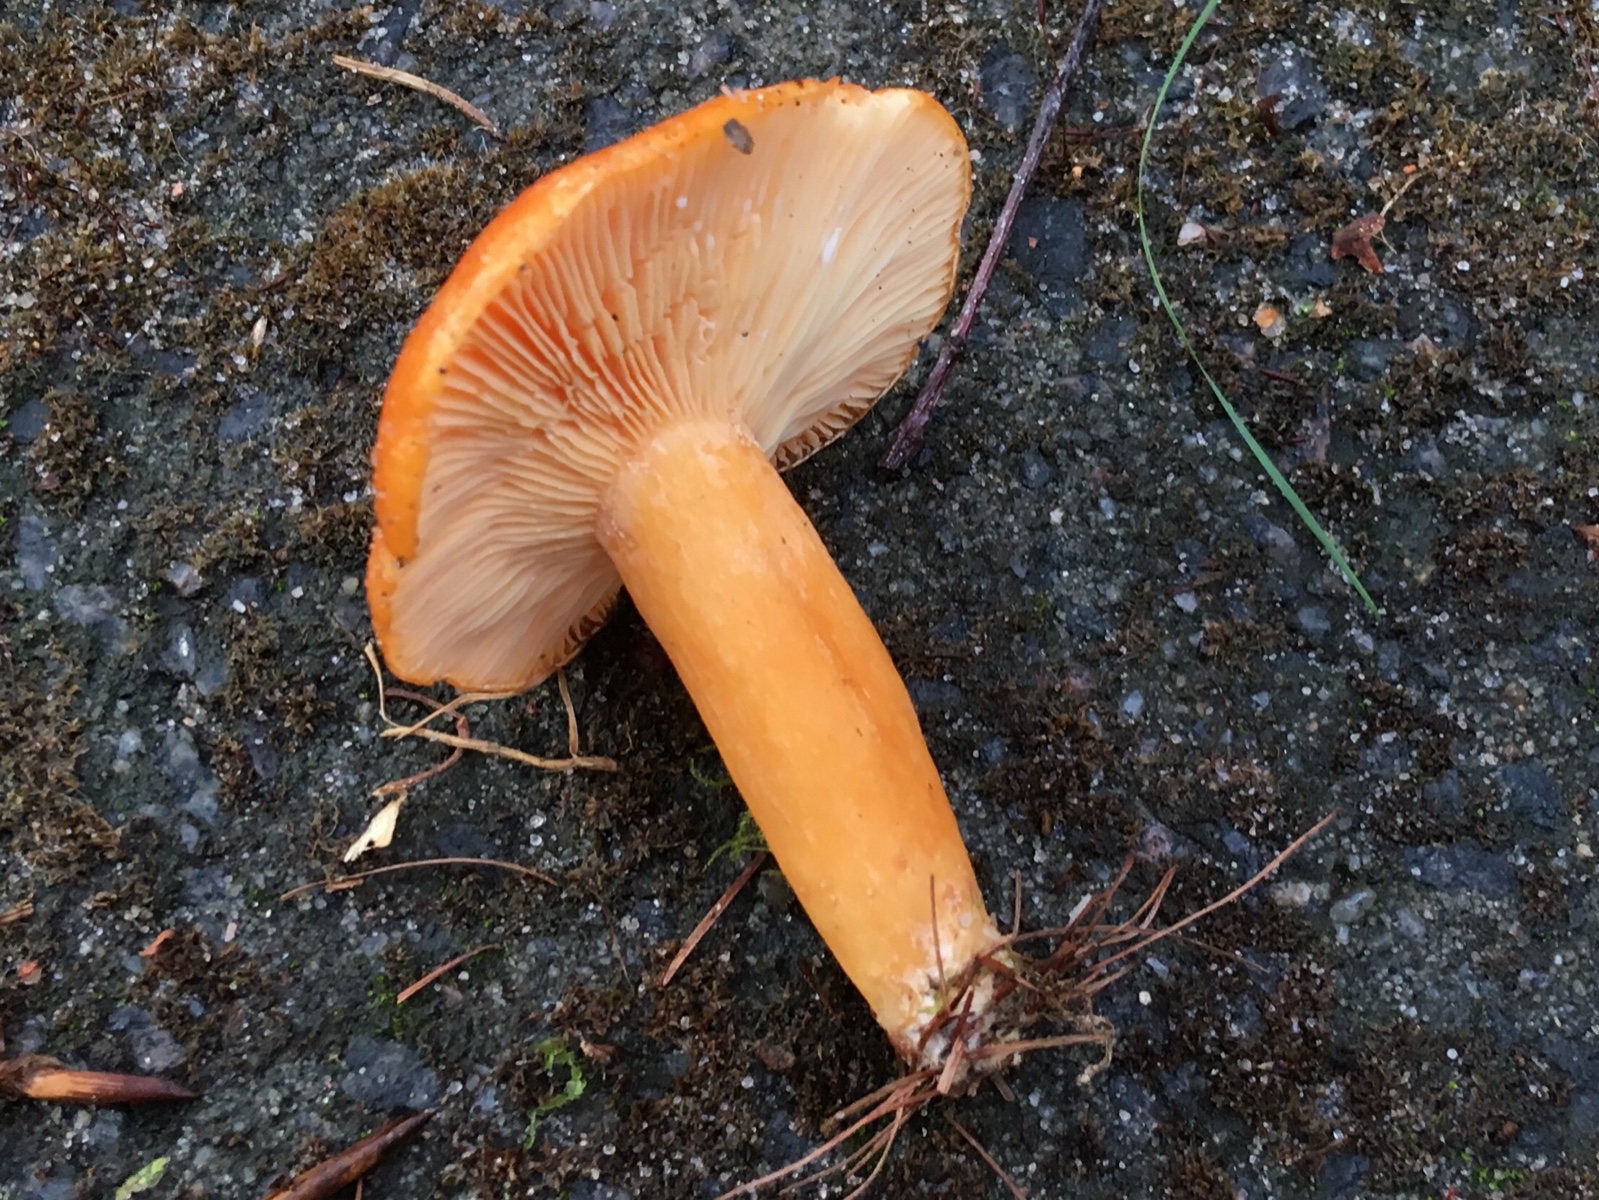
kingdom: Fungi
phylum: Basidiomycota
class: Agaricomycetes
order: Russulales
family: Russulaceae
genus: Lactarius
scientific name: Lactarius porninsis
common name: lærke-mælkehat
